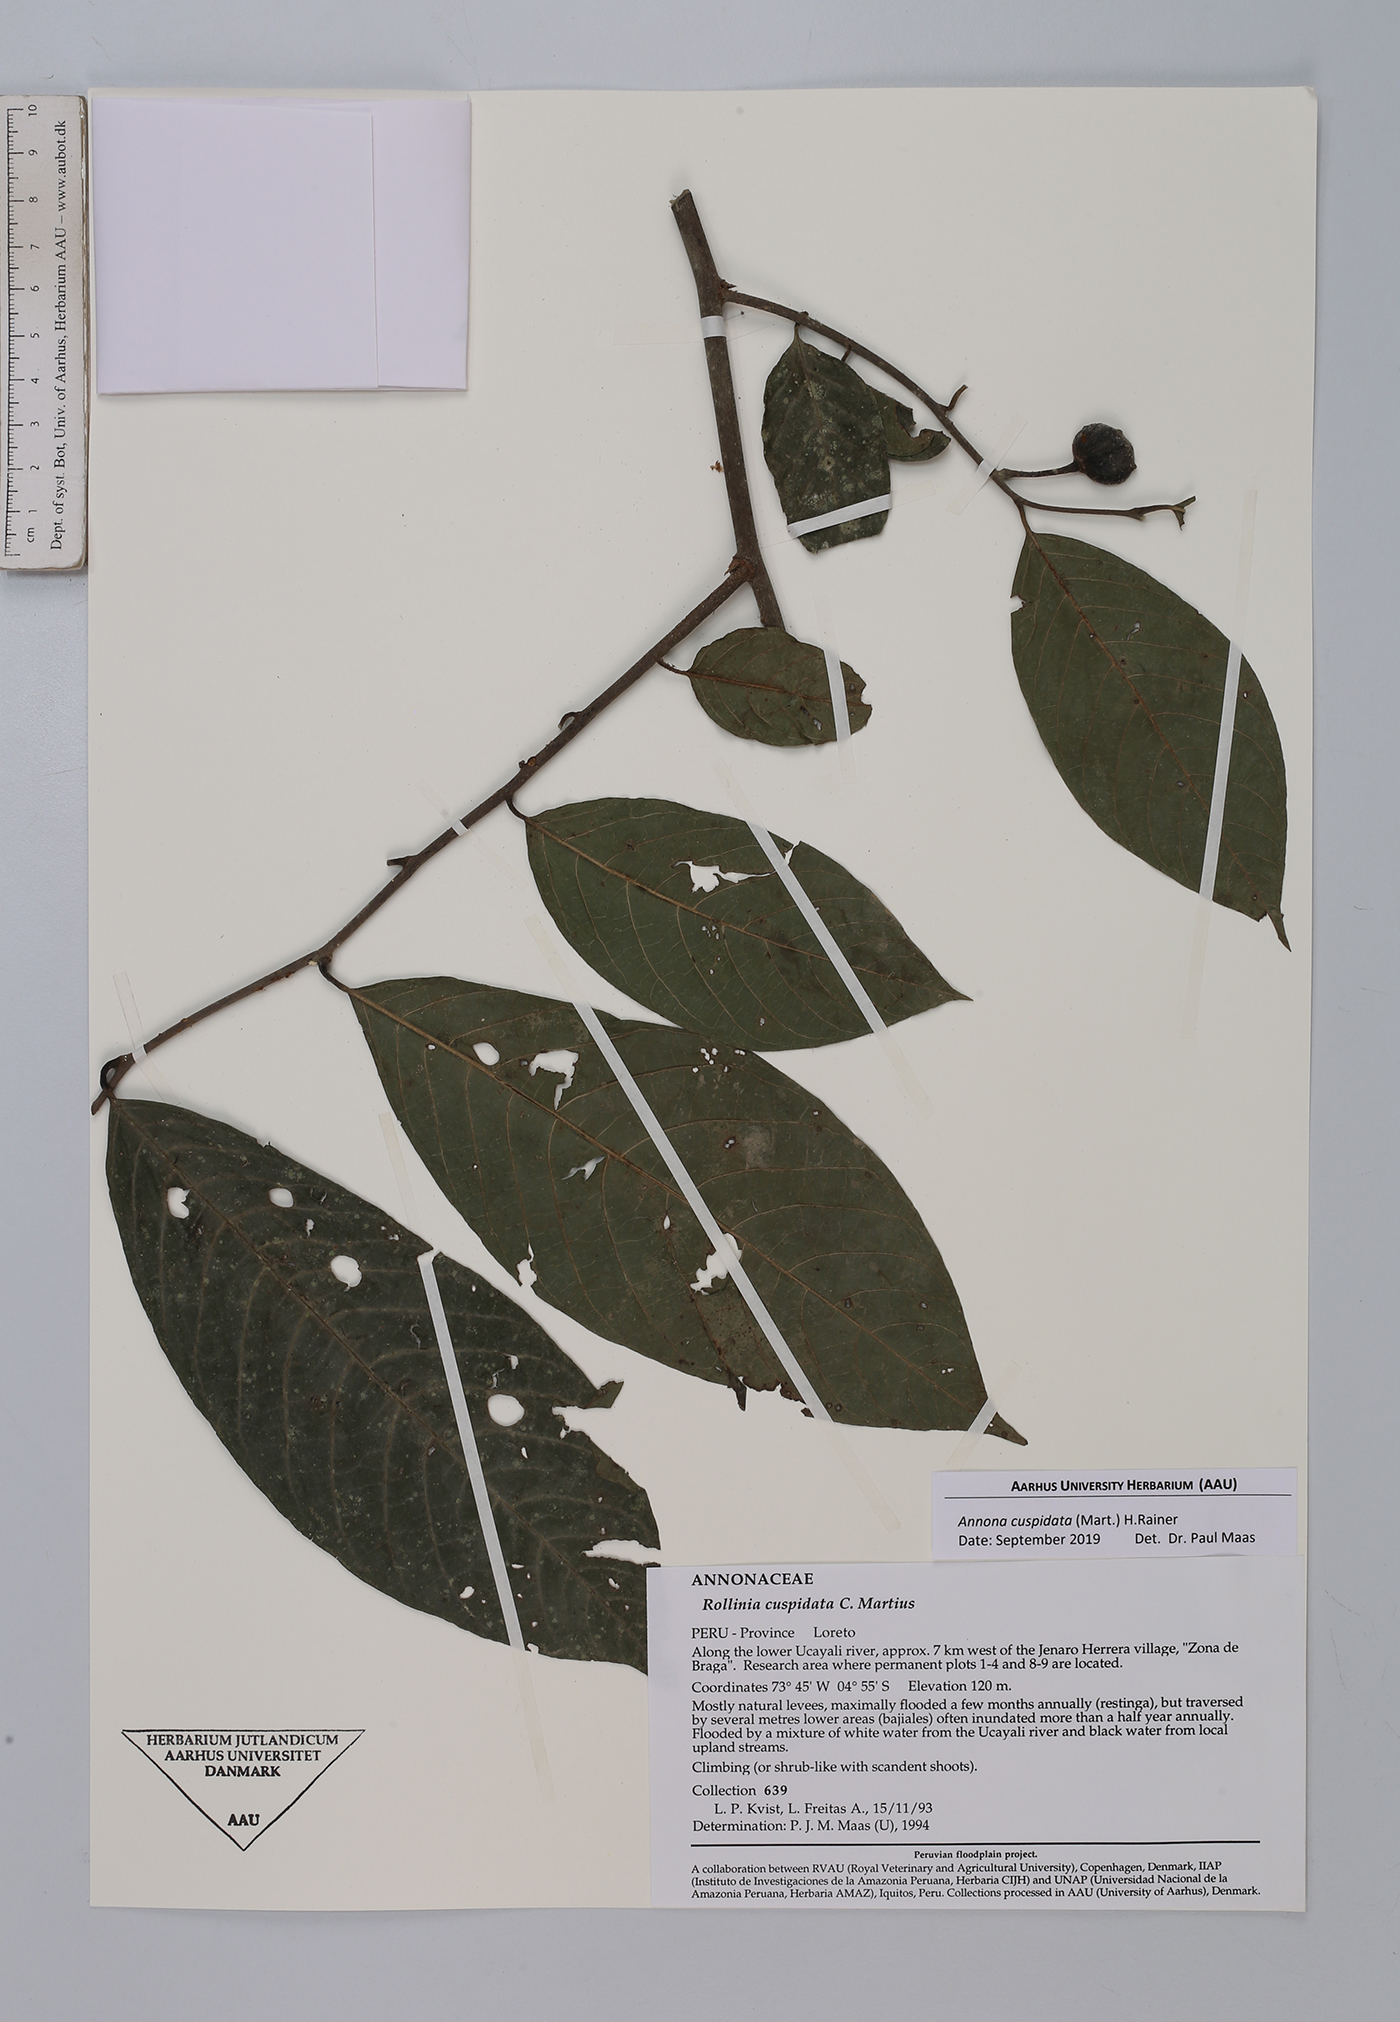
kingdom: Plantae
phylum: Tracheophyta
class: Magnoliopsida
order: Magnoliales
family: Annonaceae
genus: Annona
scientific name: Annona cuspidata
